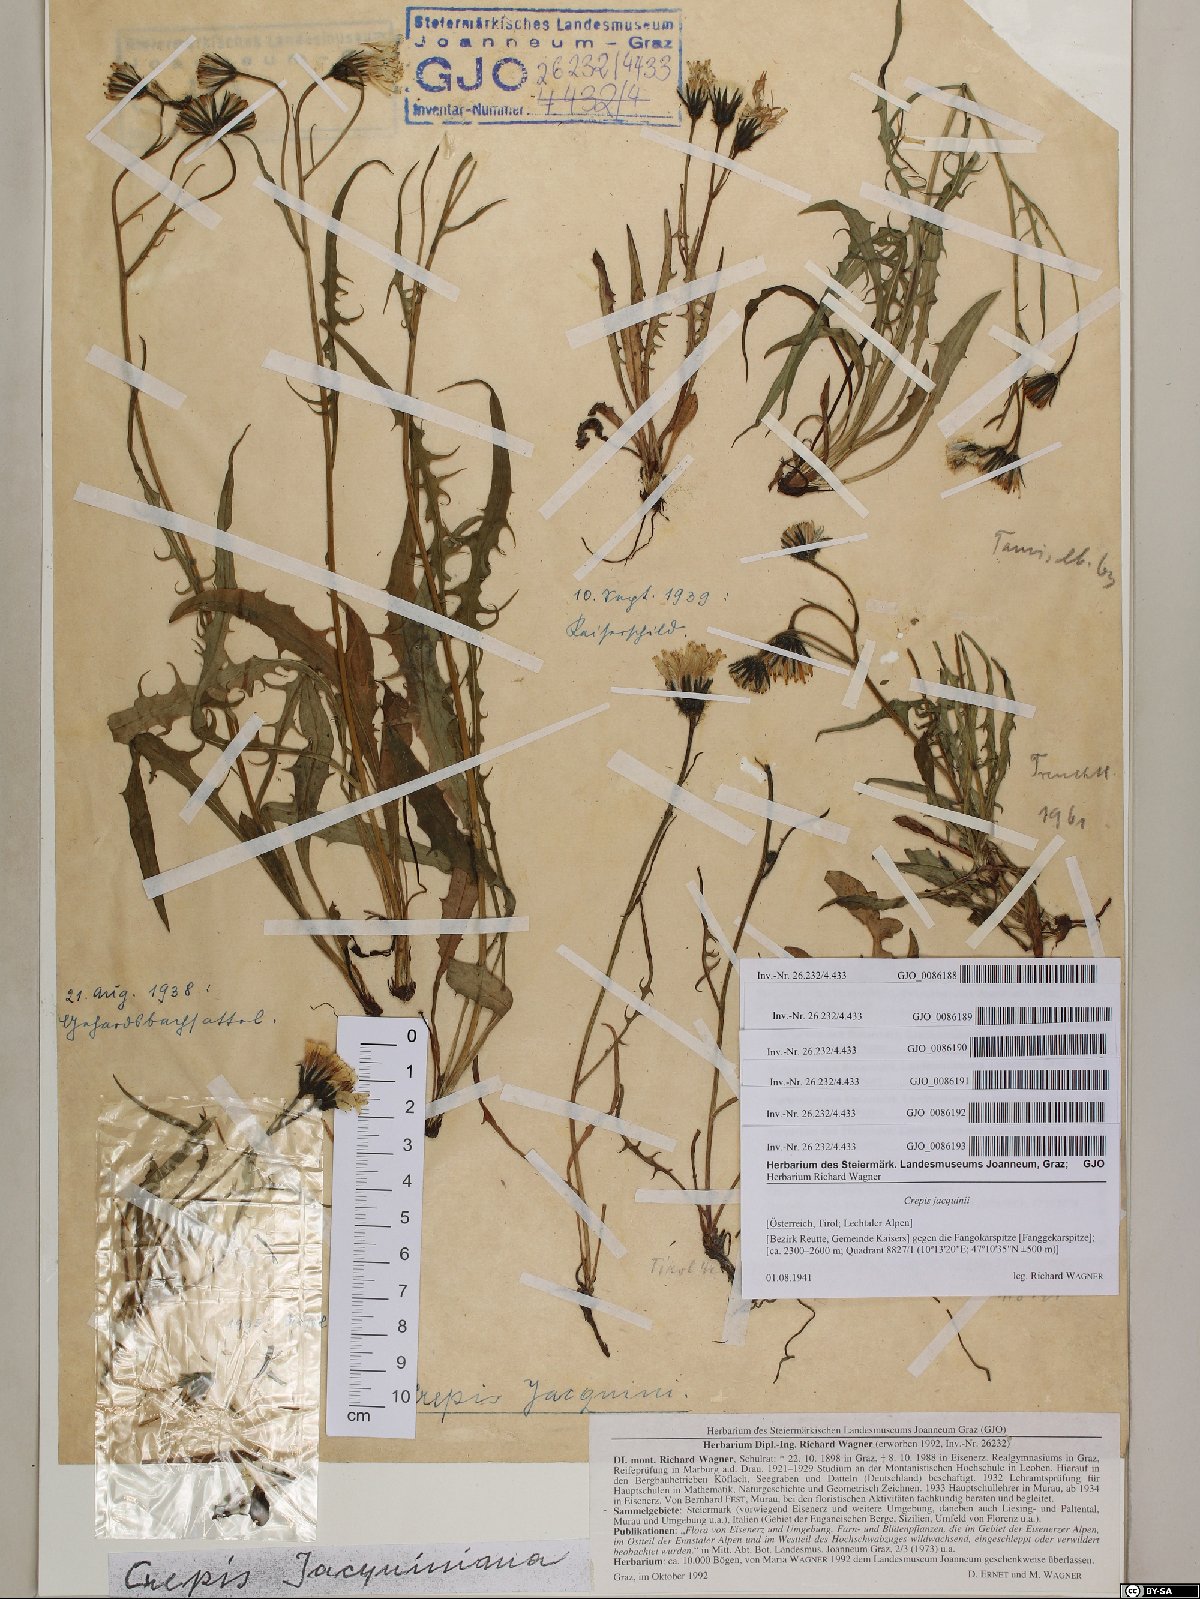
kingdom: Plantae
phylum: Tracheophyta
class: Magnoliopsida
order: Asterales
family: Asteraceae
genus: Crepis
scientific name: Crepis jacquinii
